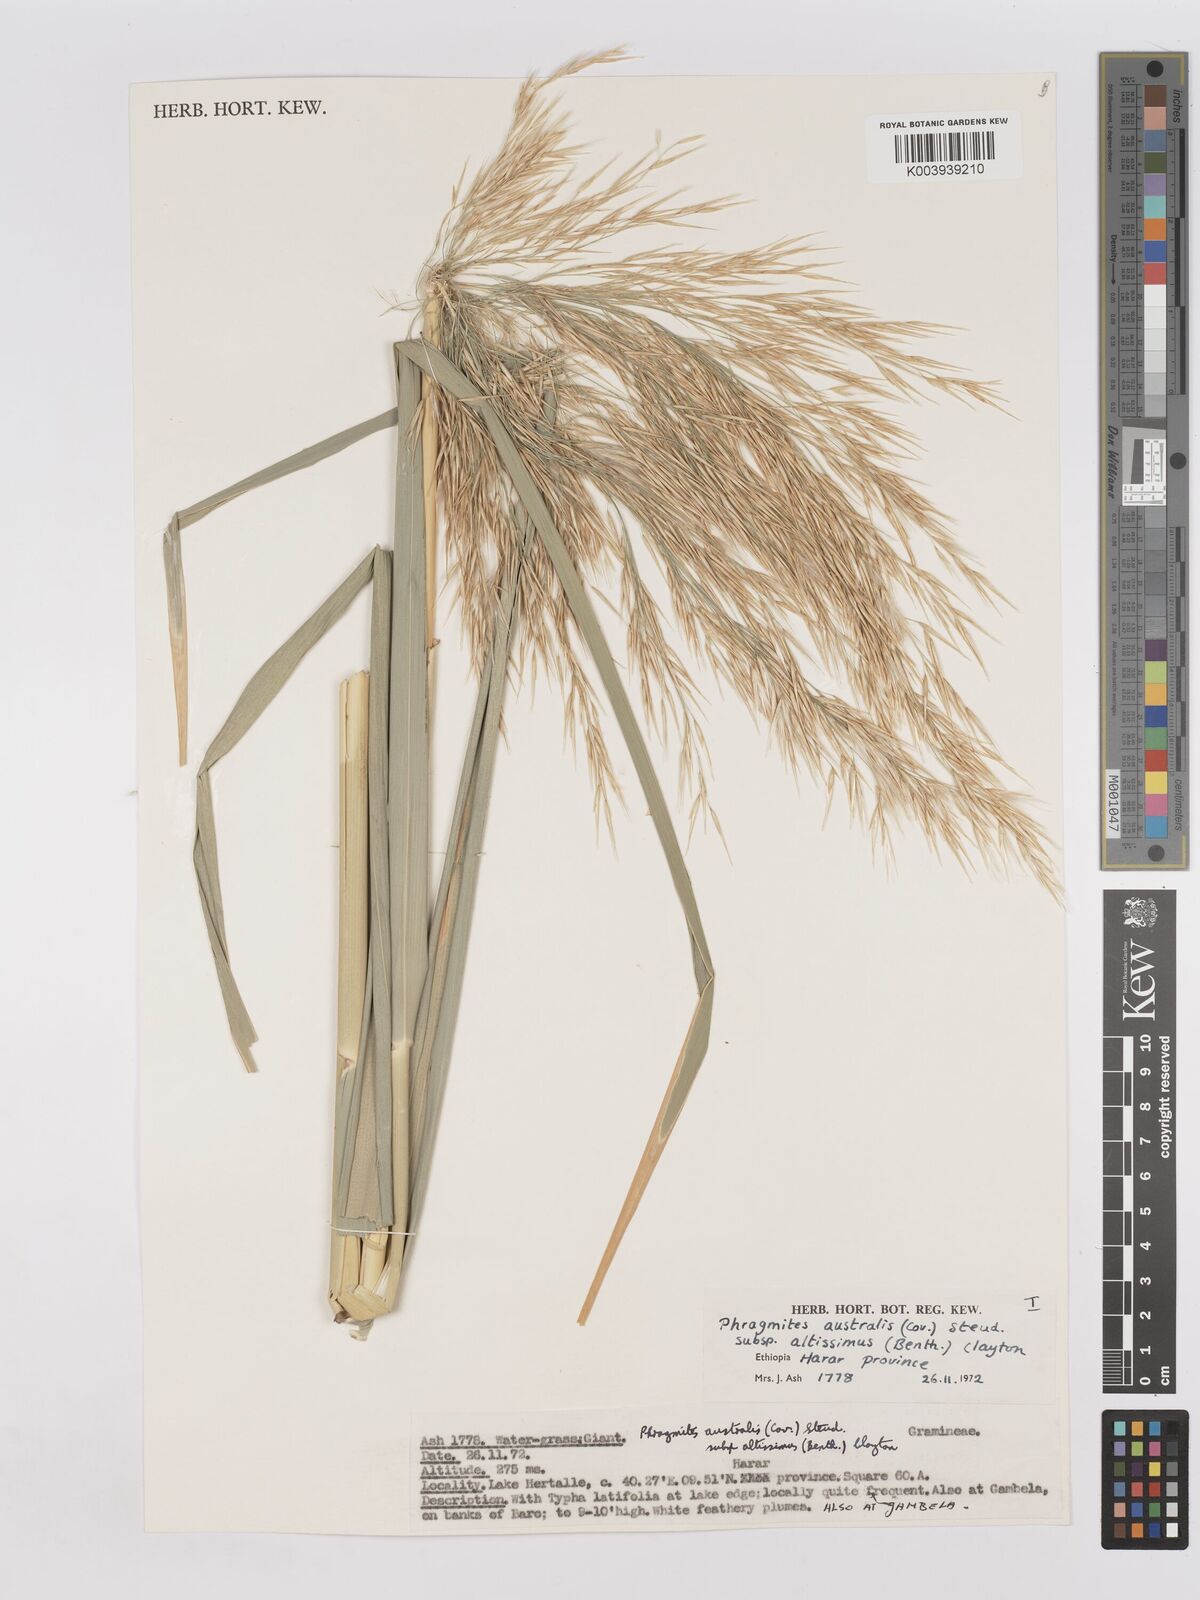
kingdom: Plantae
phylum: Tracheophyta
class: Liliopsida
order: Poales
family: Poaceae
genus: Phragmites
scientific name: Phragmites australis
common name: Common reed
